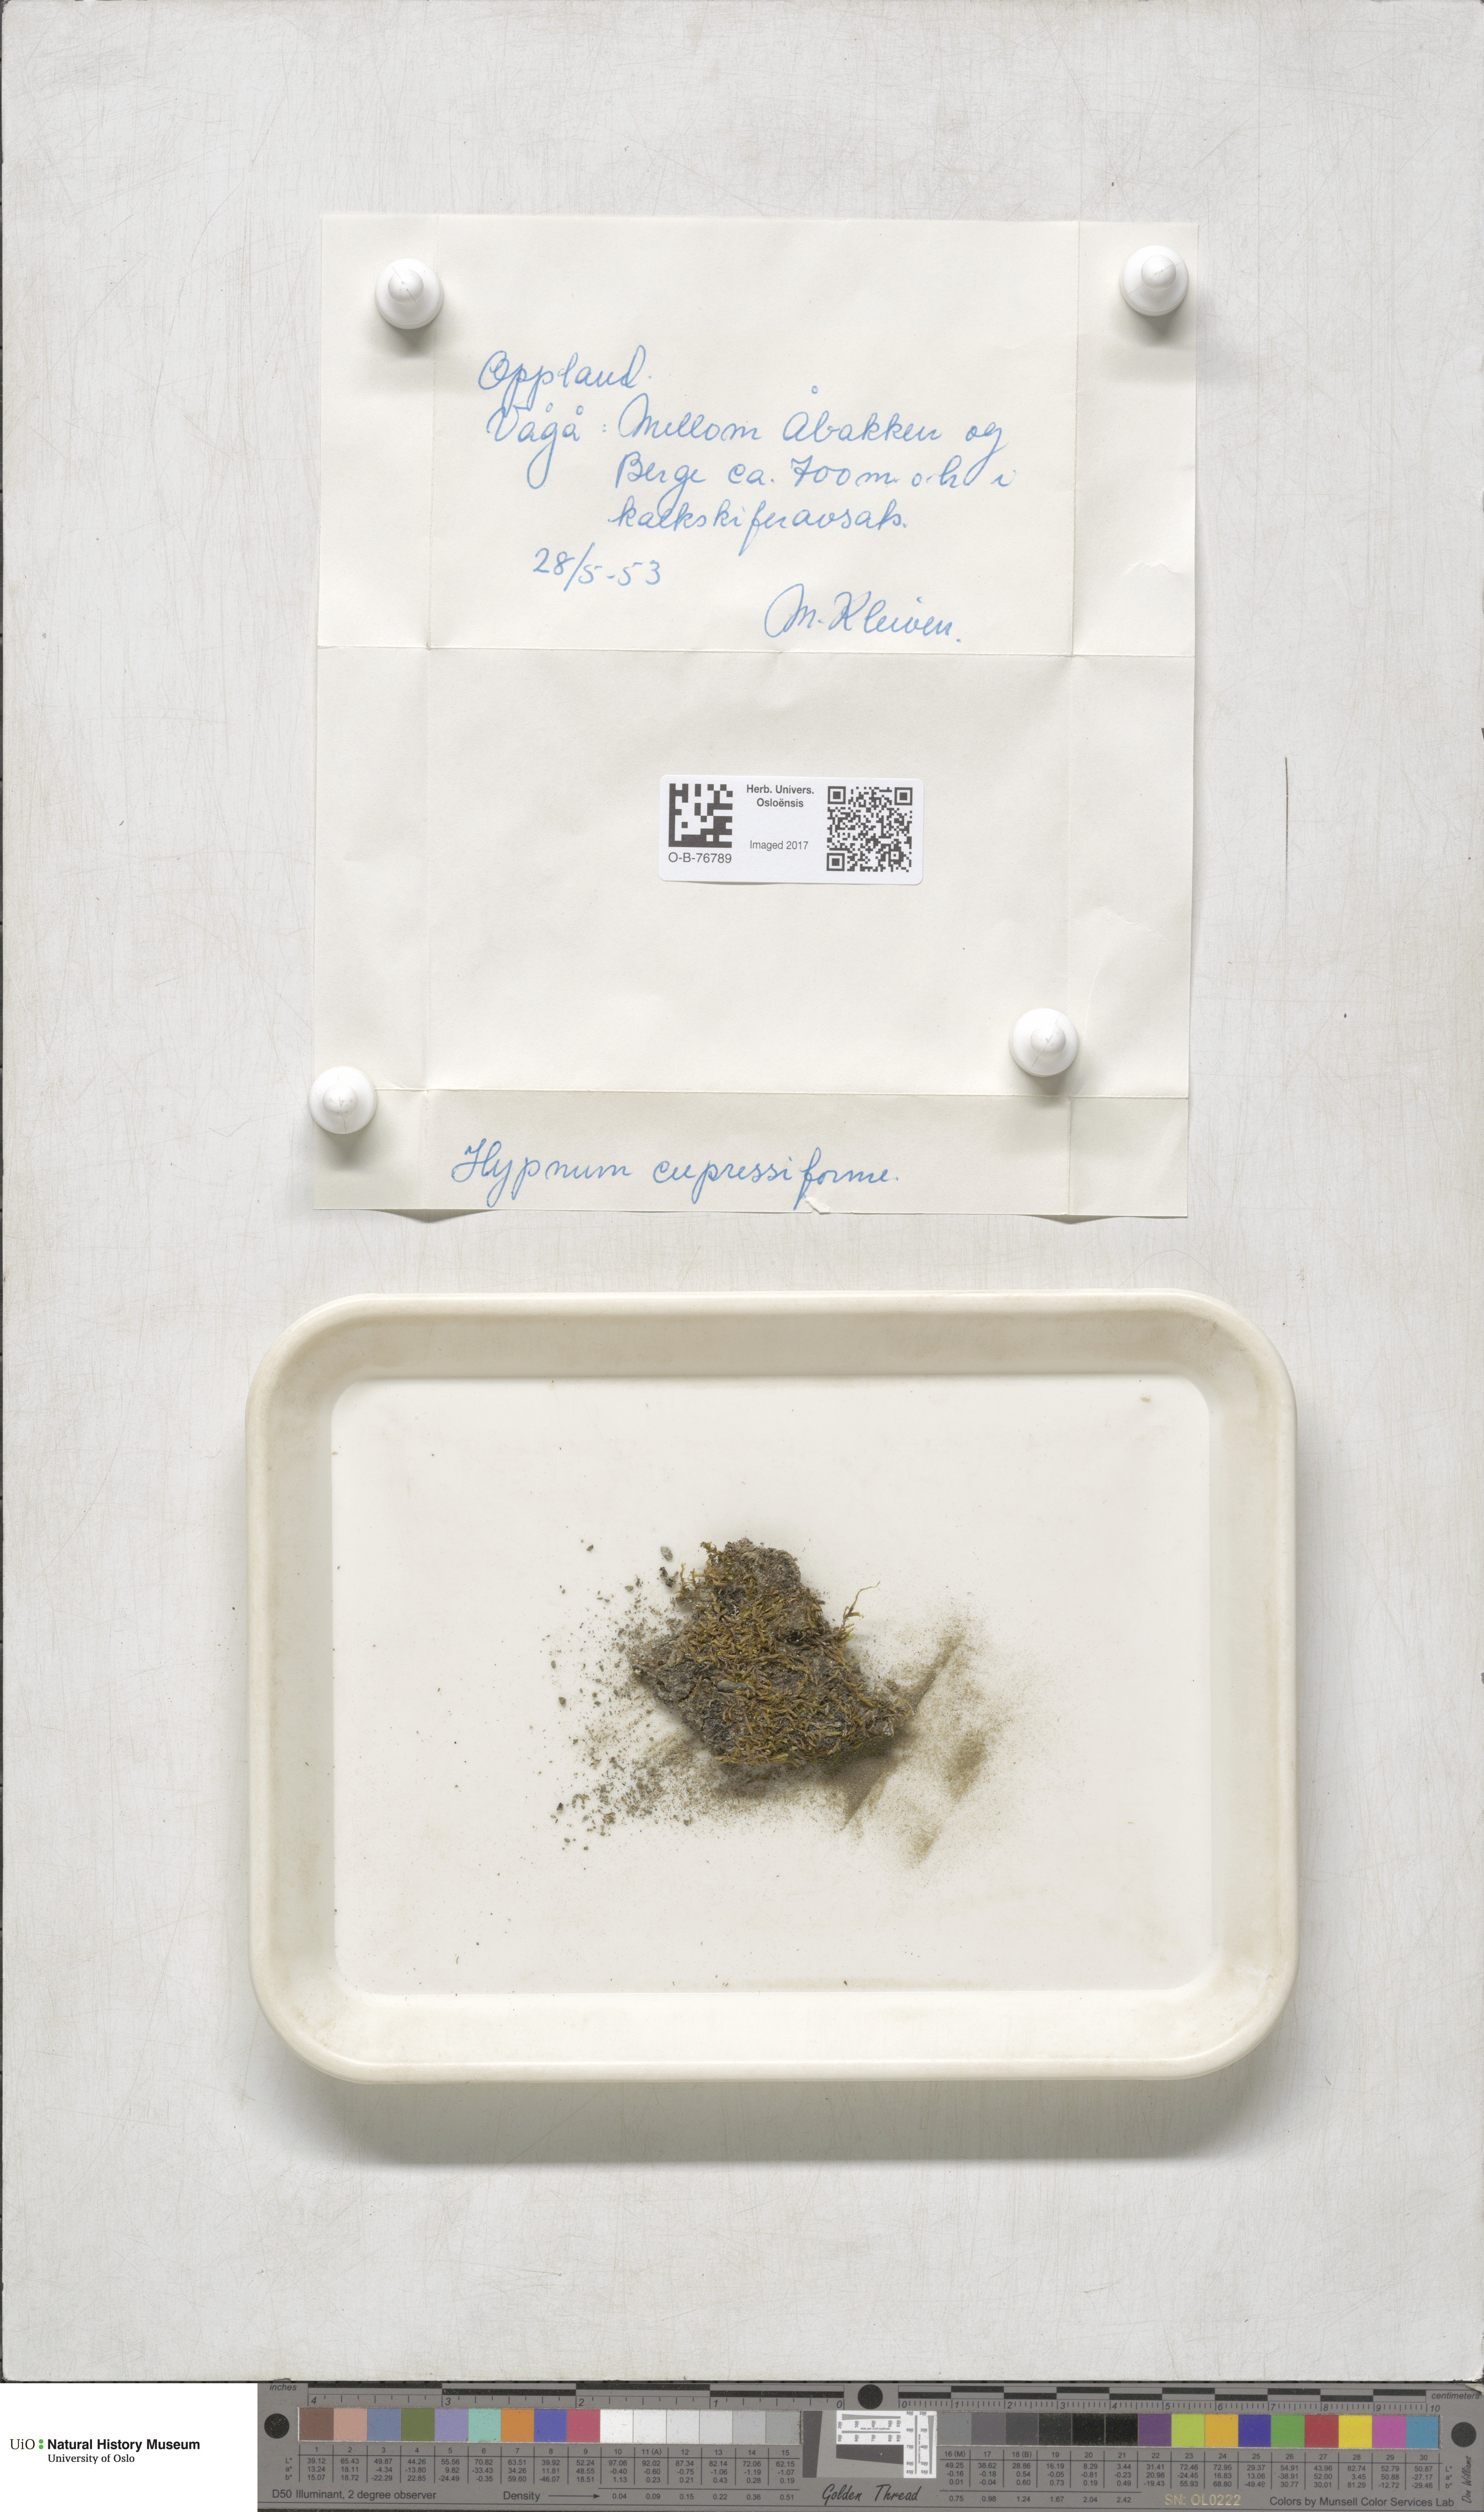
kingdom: Plantae
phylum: Bryophyta
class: Bryopsida
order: Hypnales
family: Hypnaceae
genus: Hypnum
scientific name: Hypnum cupressiforme
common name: Cypress-leaved plait-moss
